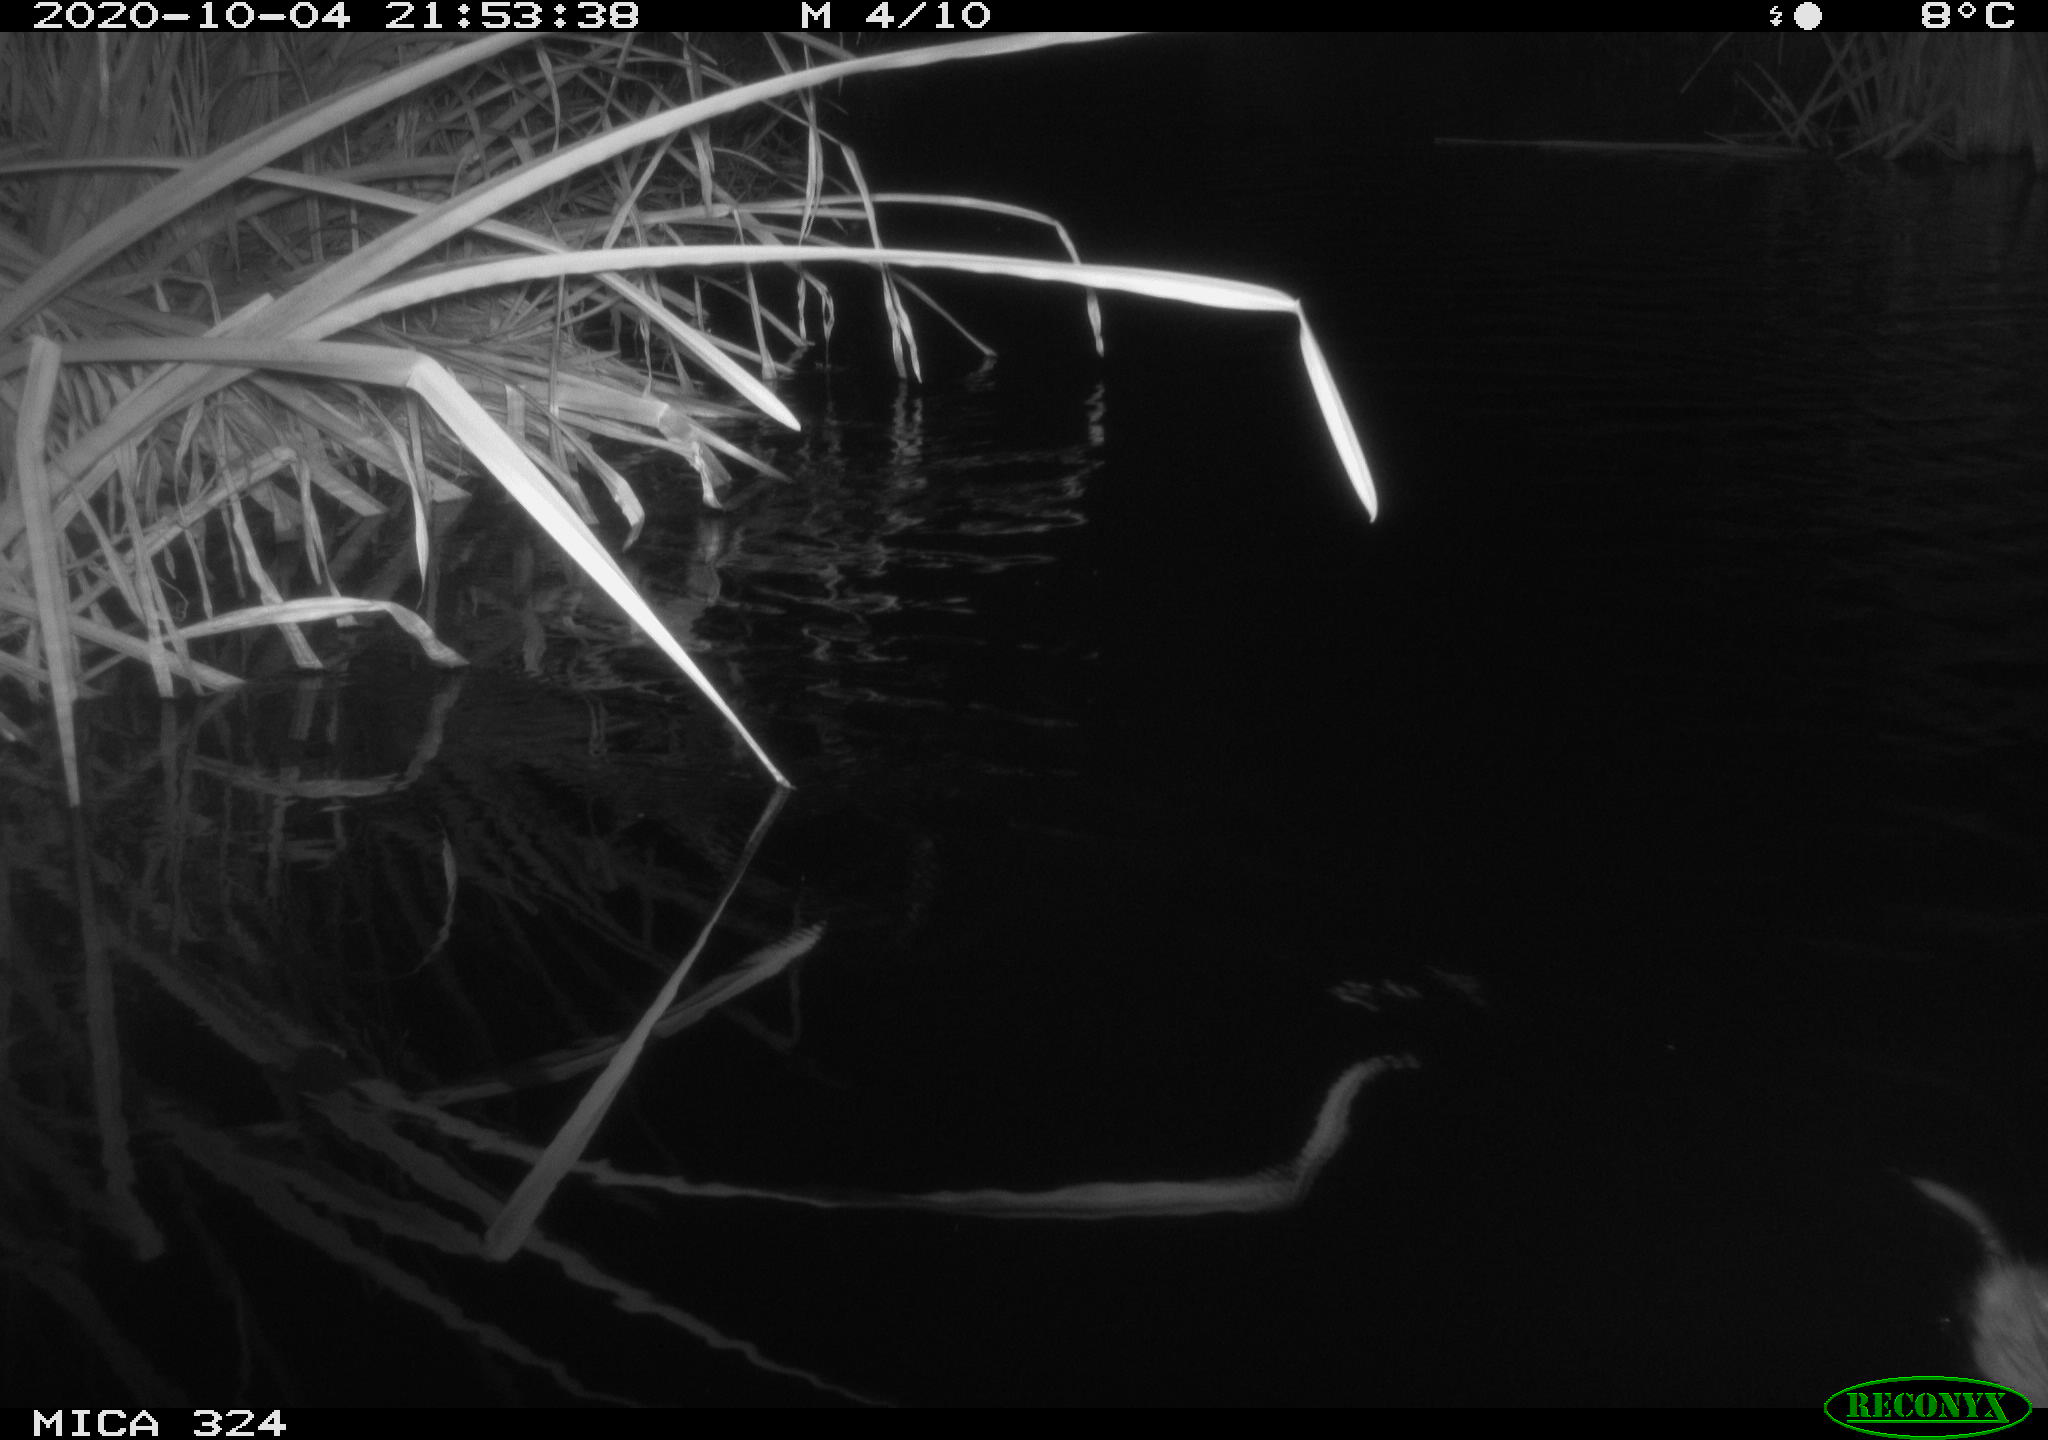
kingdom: Animalia
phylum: Chordata
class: Mammalia
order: Rodentia
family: Cricetidae
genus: Ondatra
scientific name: Ondatra zibethicus
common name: Muskrat
